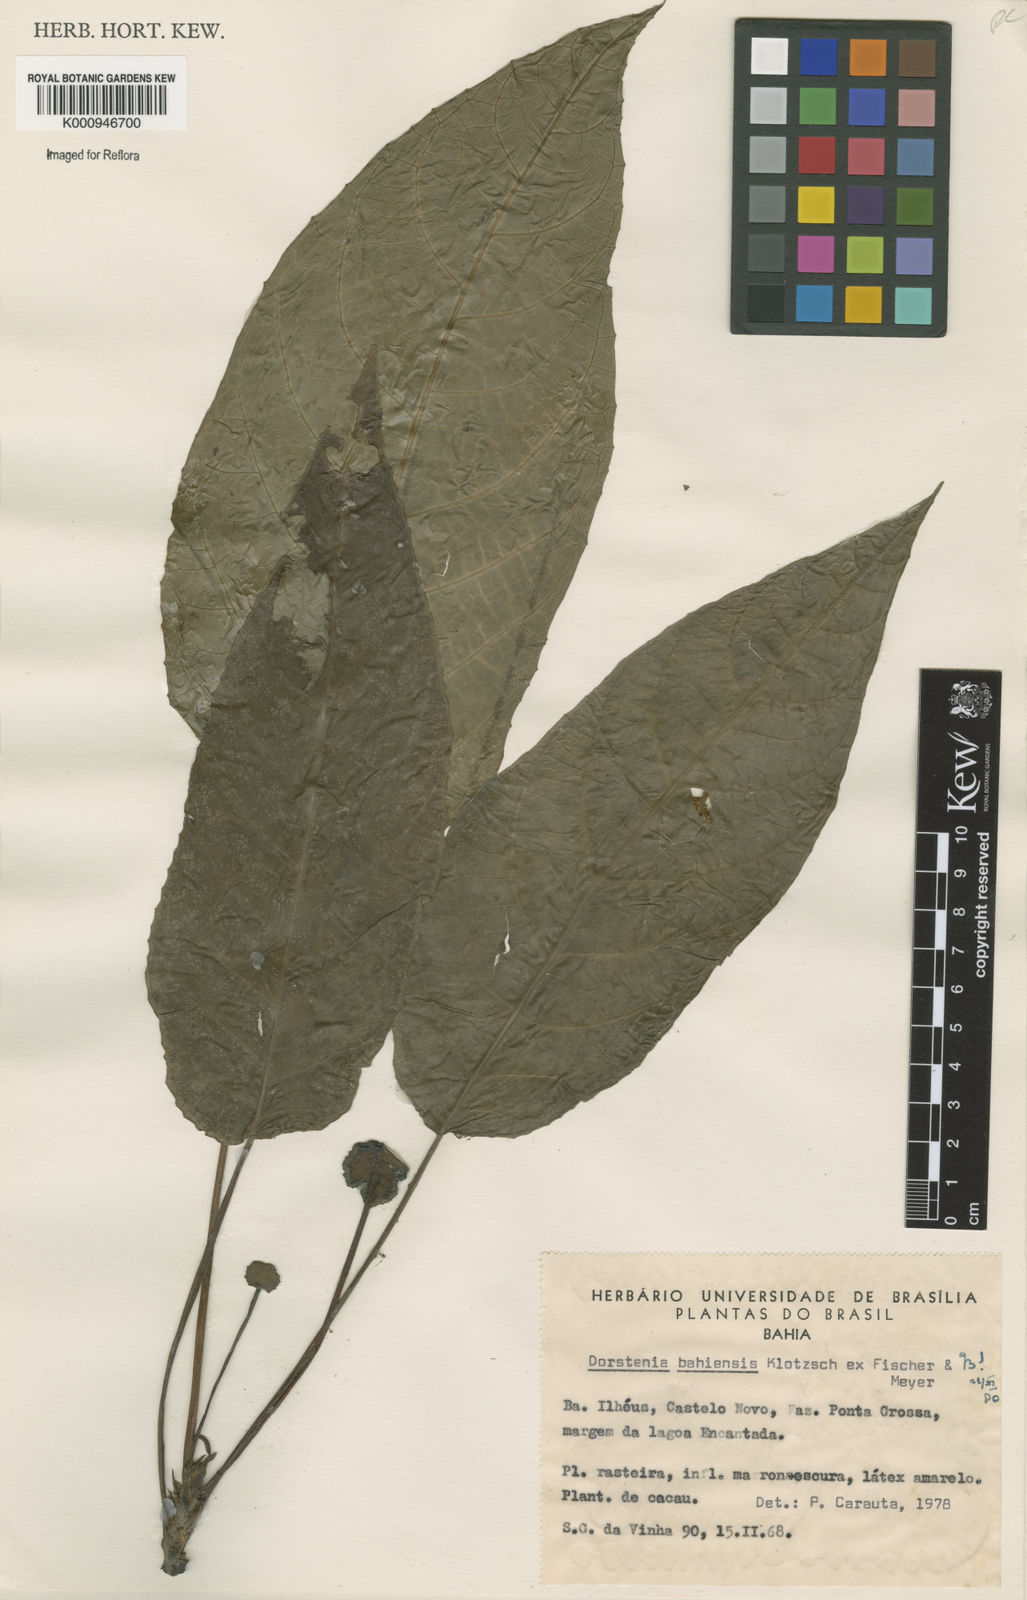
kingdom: Plantae
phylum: Tracheophyta
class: Magnoliopsida
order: Rosales
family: Moraceae
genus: Dorstenia
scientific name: Dorstenia bahiensis
